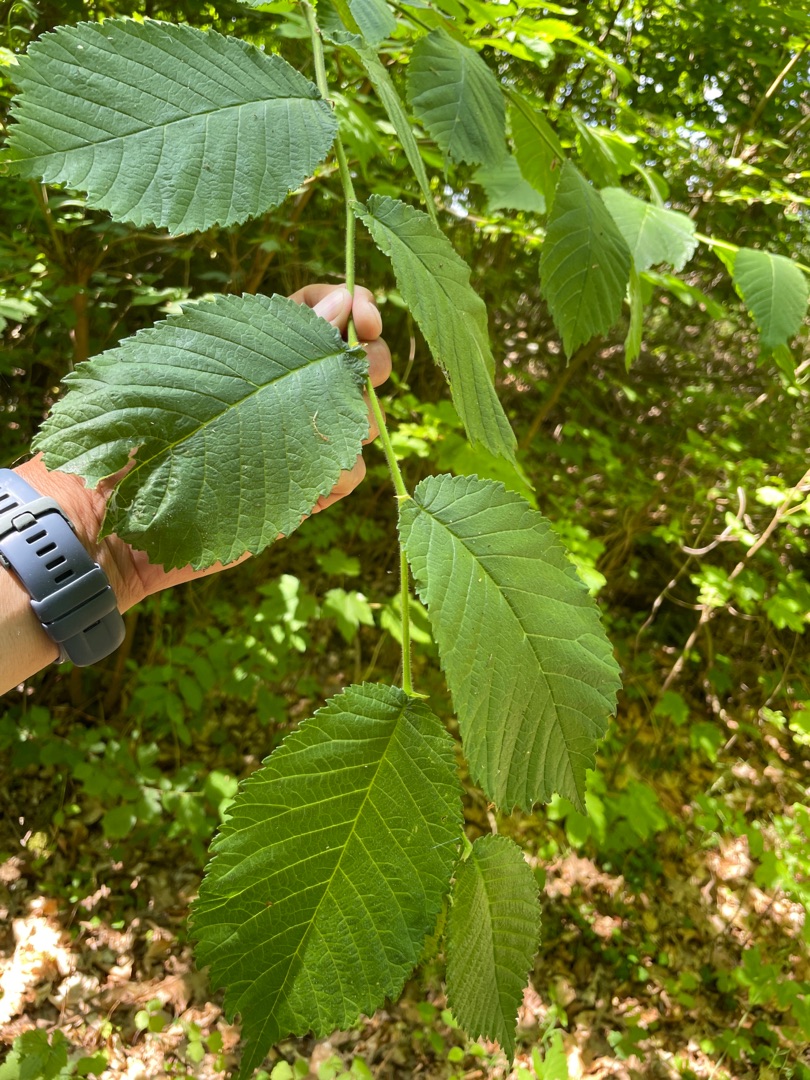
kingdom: Plantae
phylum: Tracheophyta
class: Magnoliopsida
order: Rosales
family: Ulmaceae
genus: Ulmus
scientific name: Ulmus glabra
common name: Skov-elm/storbladet elm
